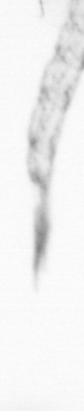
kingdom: Animalia
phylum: Arthropoda
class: Copepoda
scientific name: Copepoda
